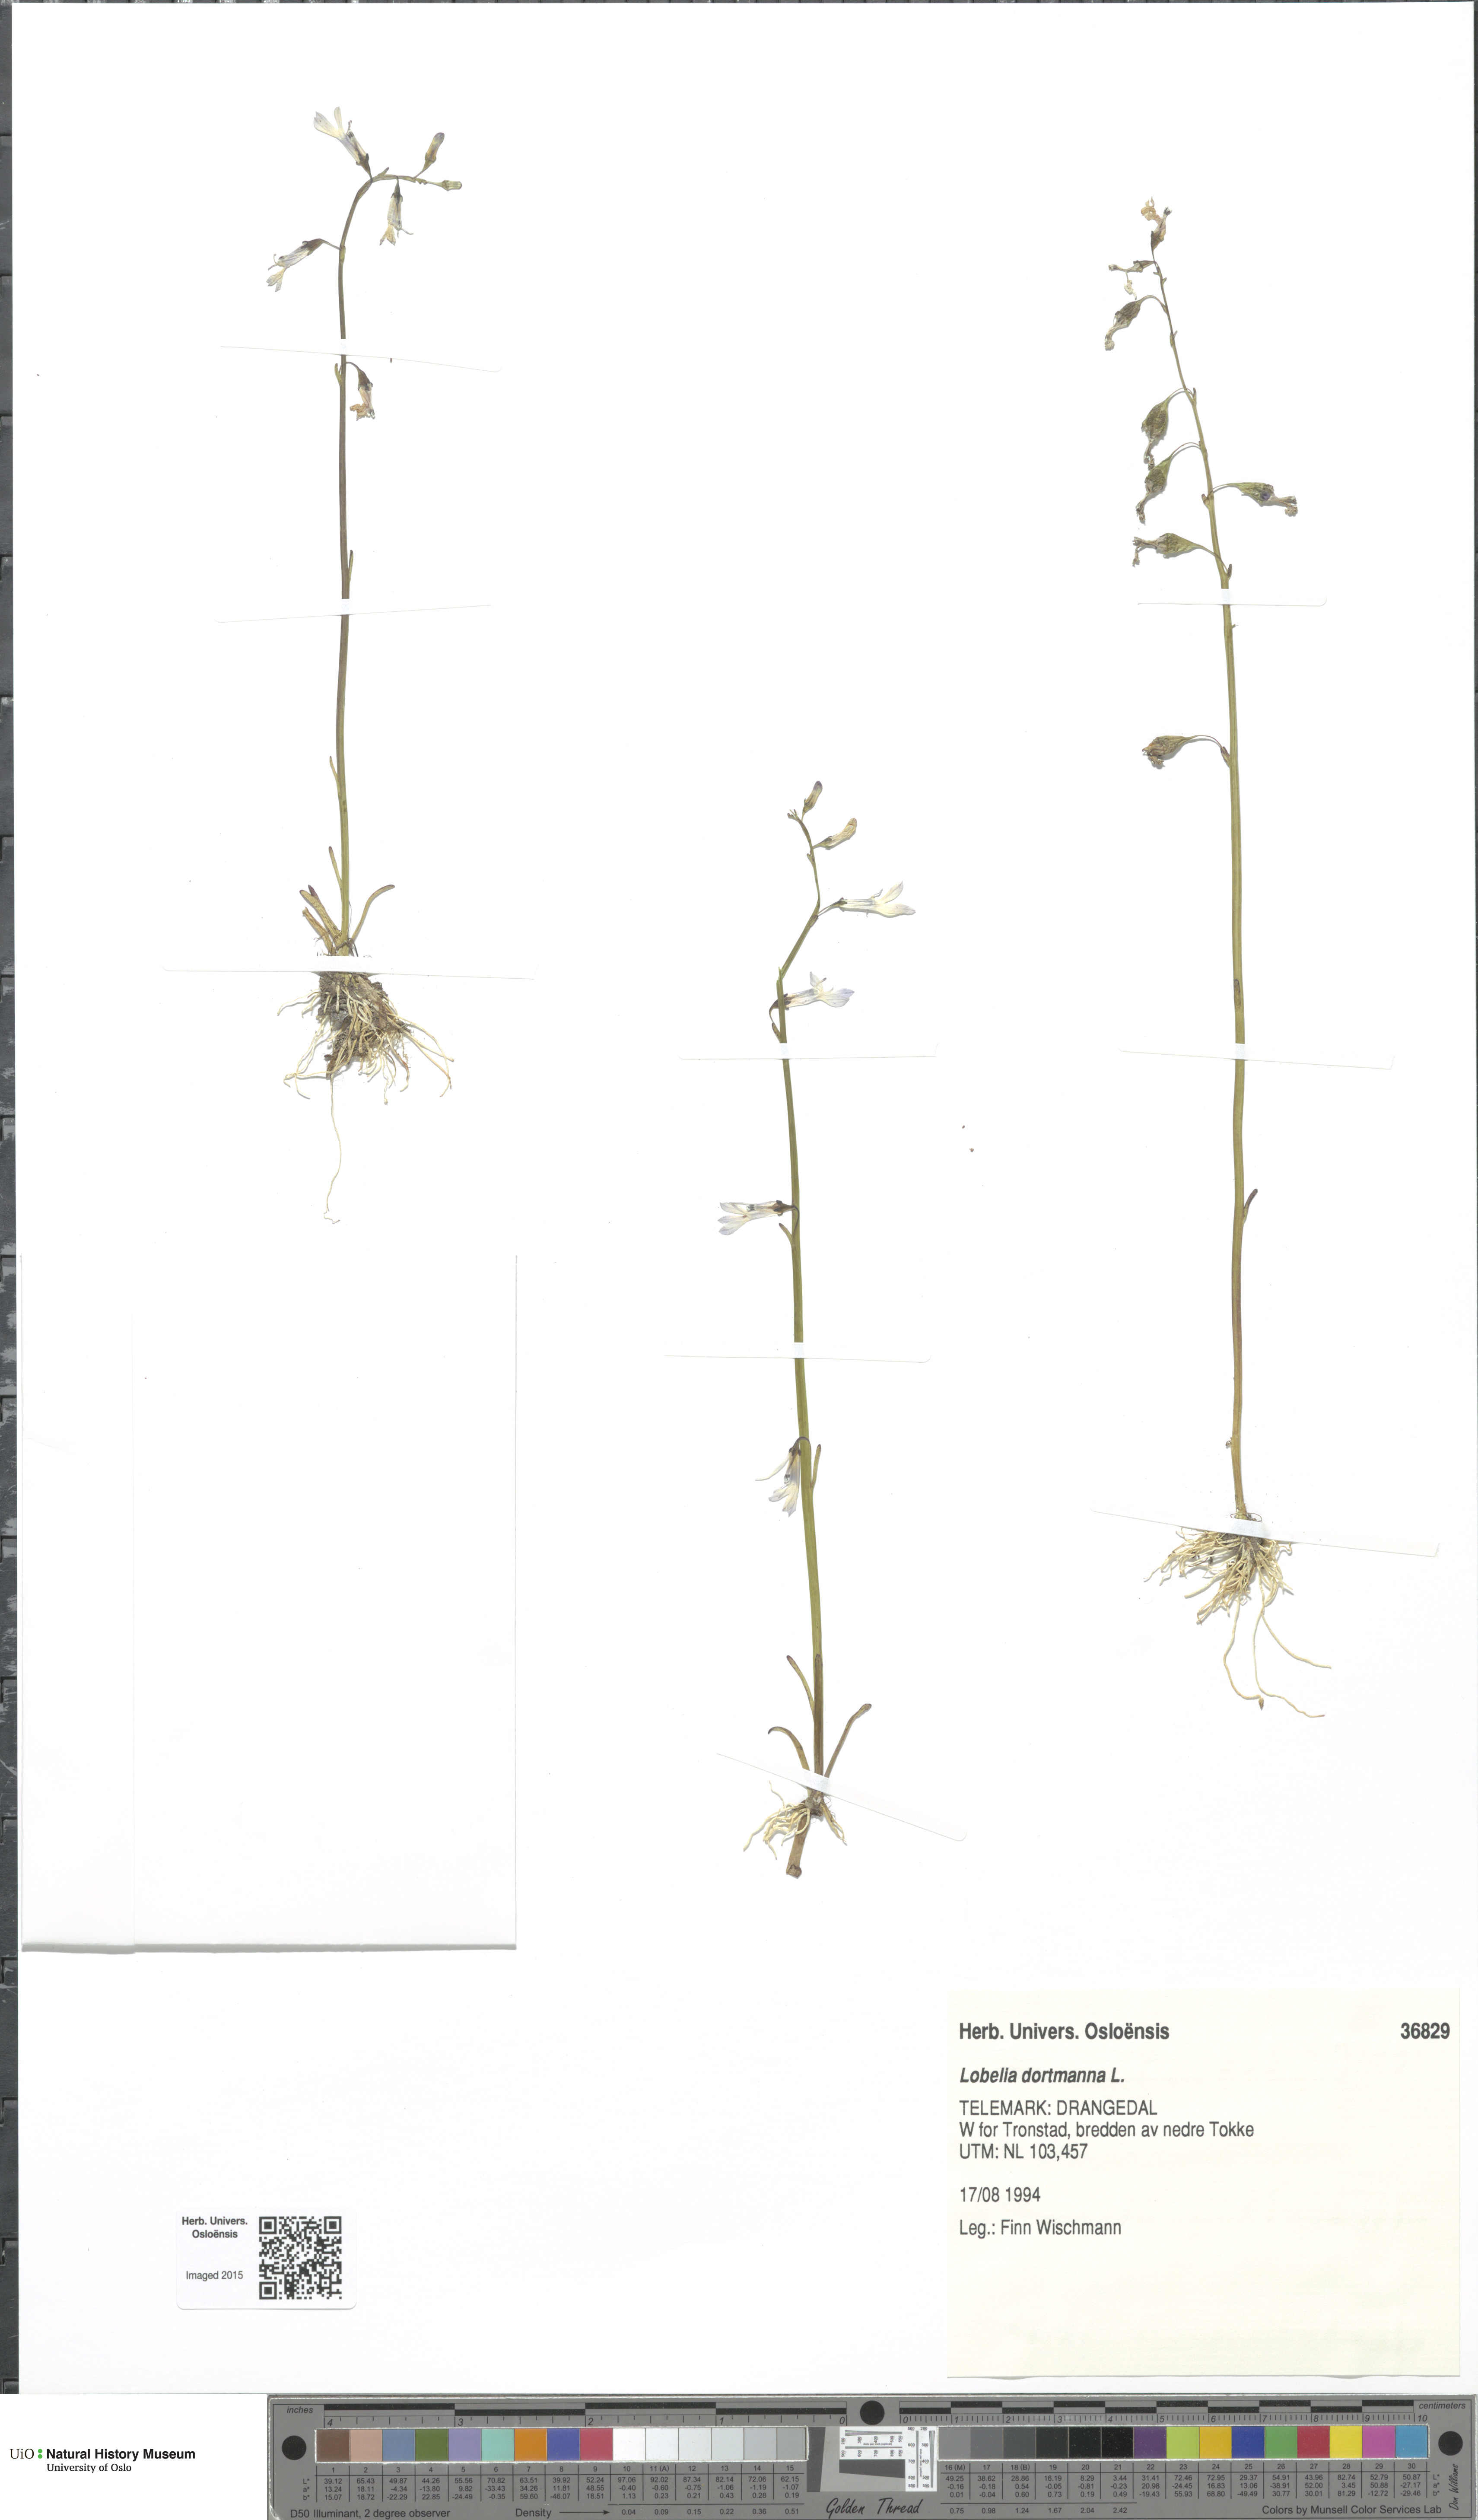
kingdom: Plantae
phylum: Tracheophyta
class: Magnoliopsida
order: Asterales
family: Campanulaceae
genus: Lobelia
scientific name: Lobelia dortmanna
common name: Water lobelia
